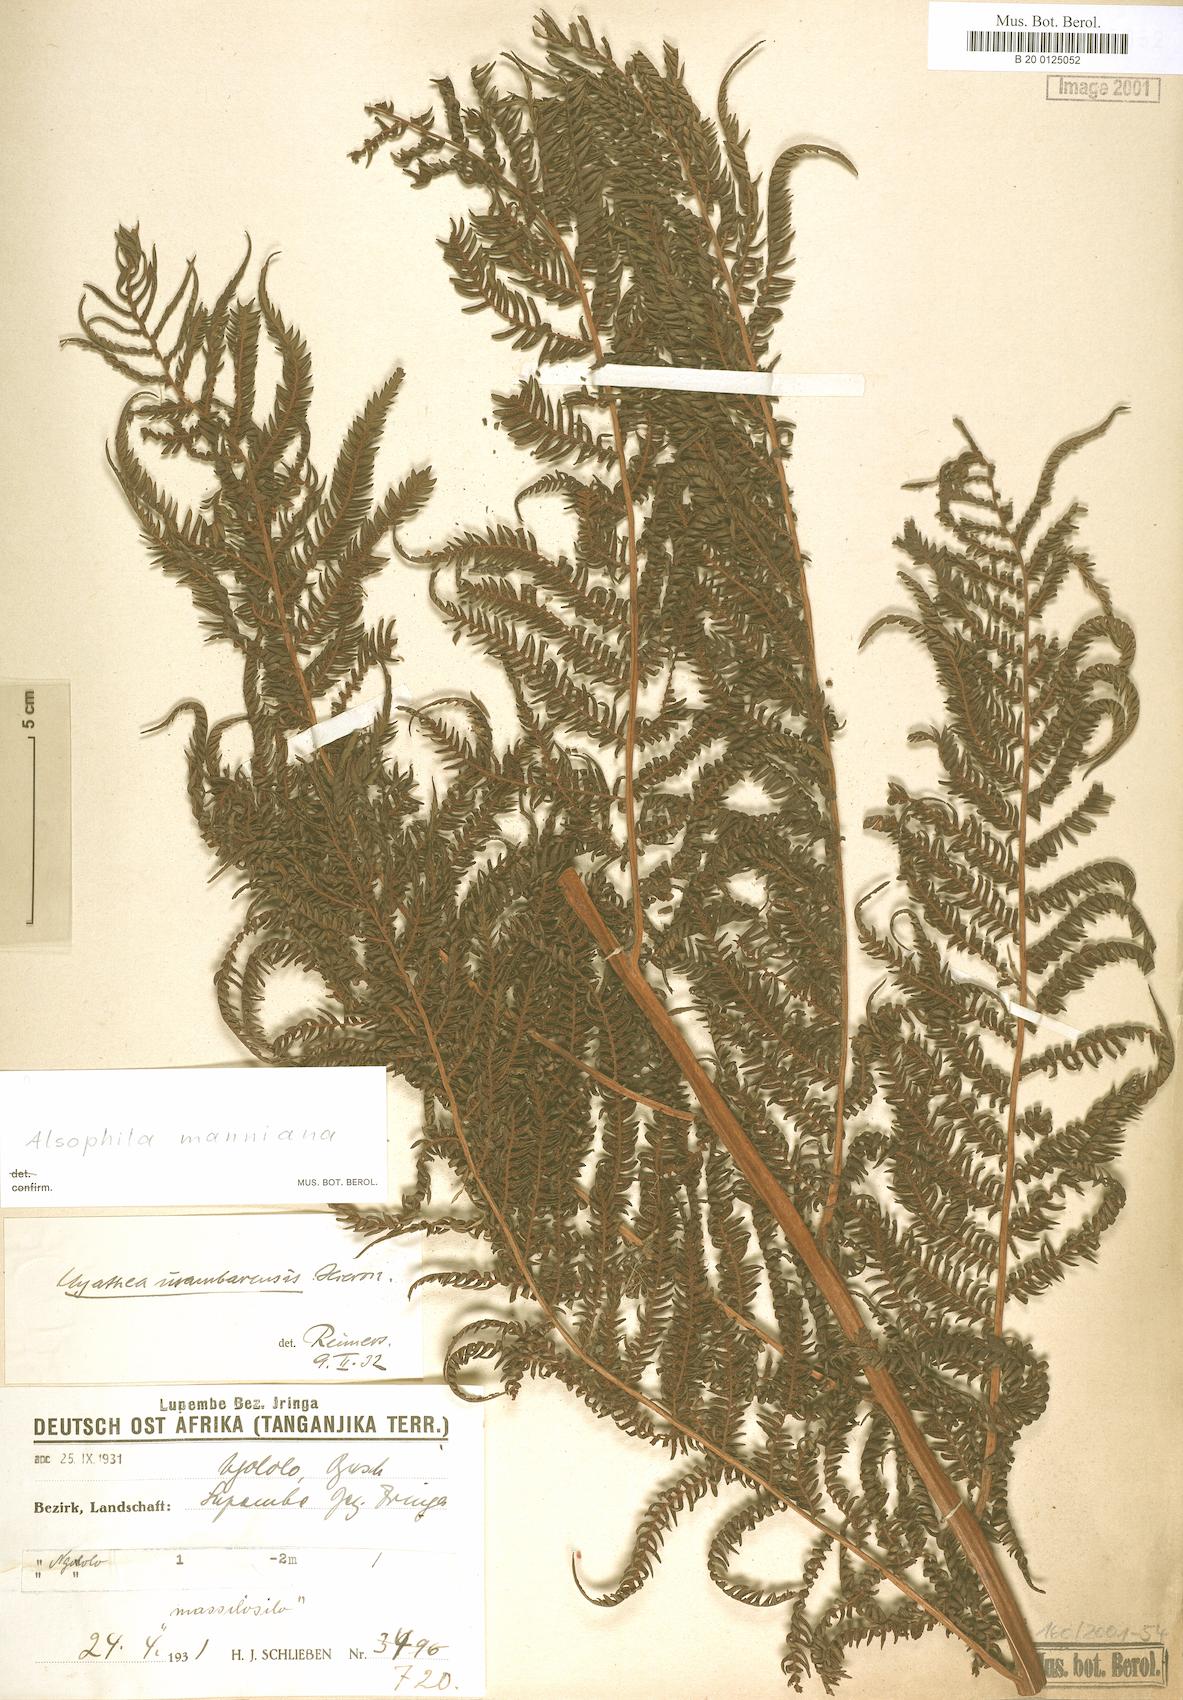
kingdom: Plantae
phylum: Tracheophyta
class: Polypodiopsida
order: Cyatheales
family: Cyatheaceae
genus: Alsophila
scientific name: Alsophila manniana
